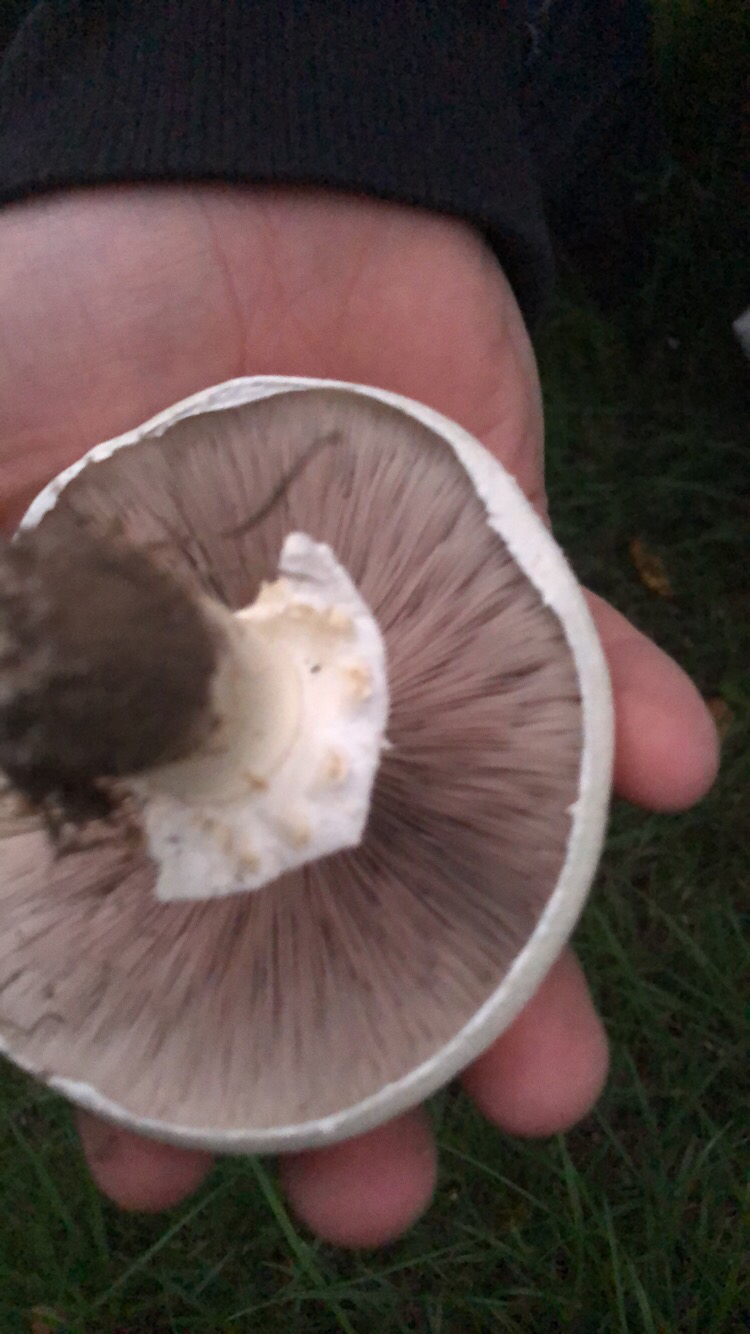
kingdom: Fungi
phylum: Basidiomycota
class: Agaricomycetes
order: Agaricales
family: Agaricaceae
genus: Agaricus
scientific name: Agaricus
